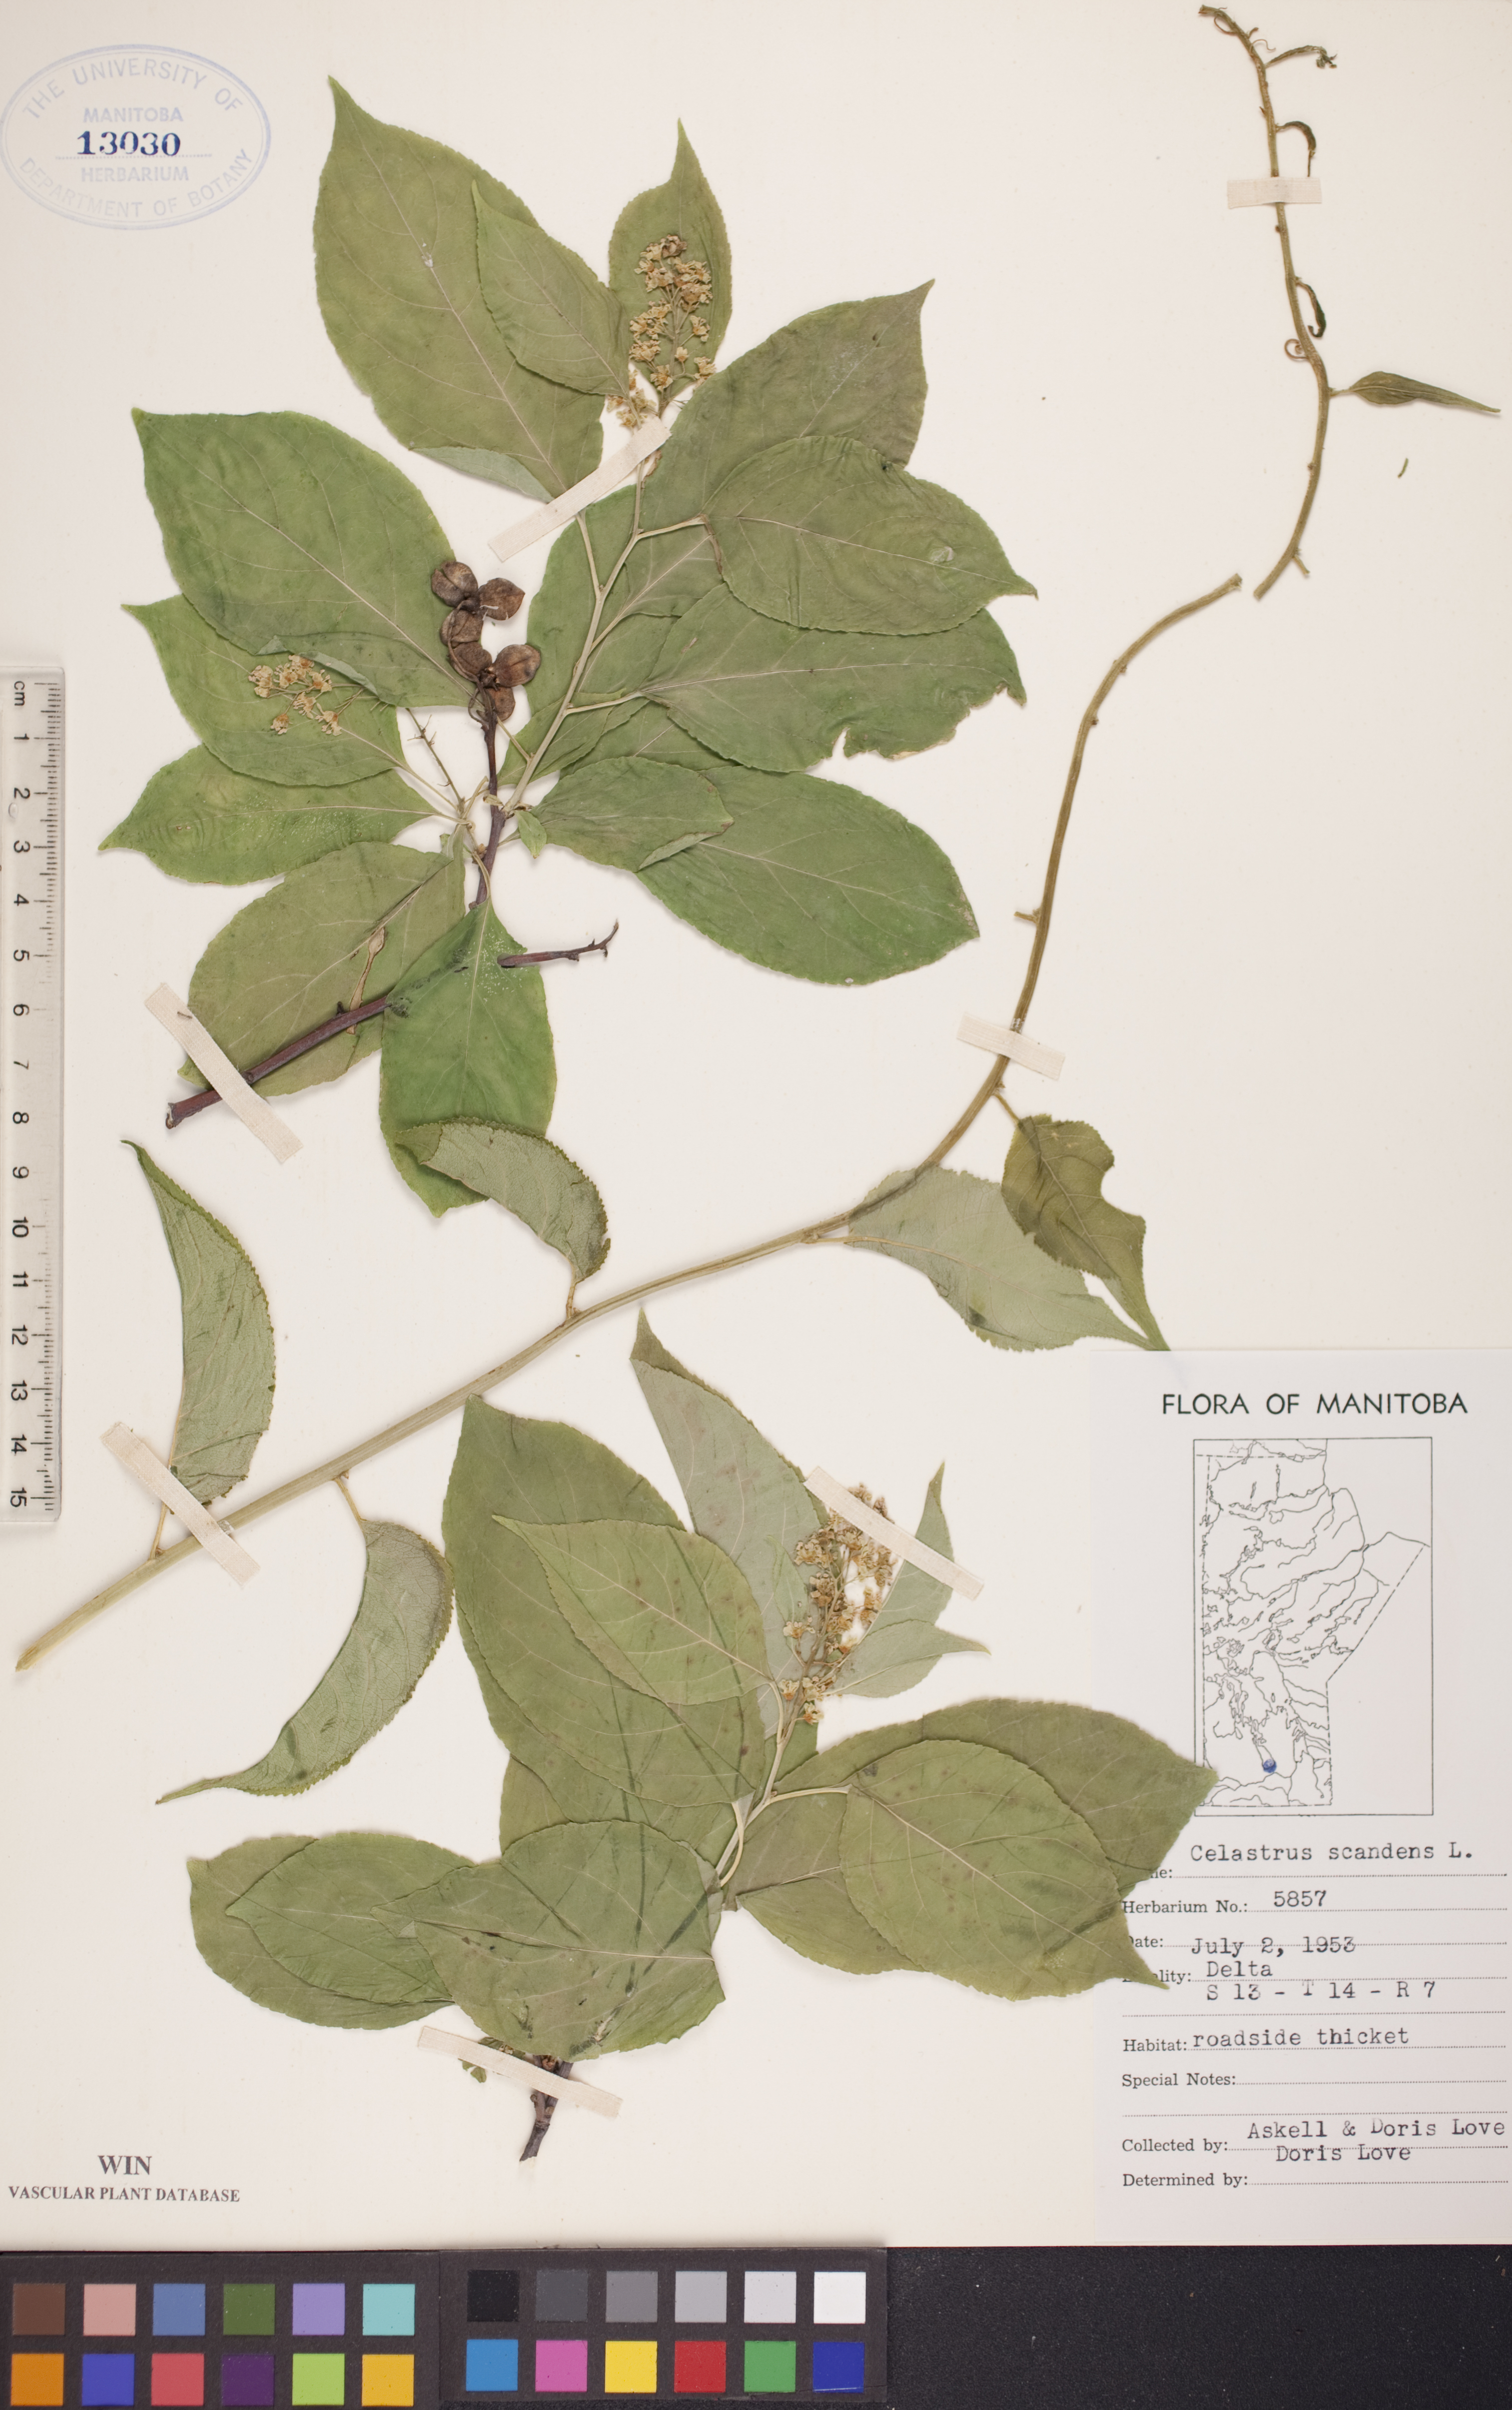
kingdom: Plantae
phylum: Tracheophyta
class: Magnoliopsida
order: Celastrales
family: Celastraceae
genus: Celastrus
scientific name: Celastrus scandens
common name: American bittersweet
